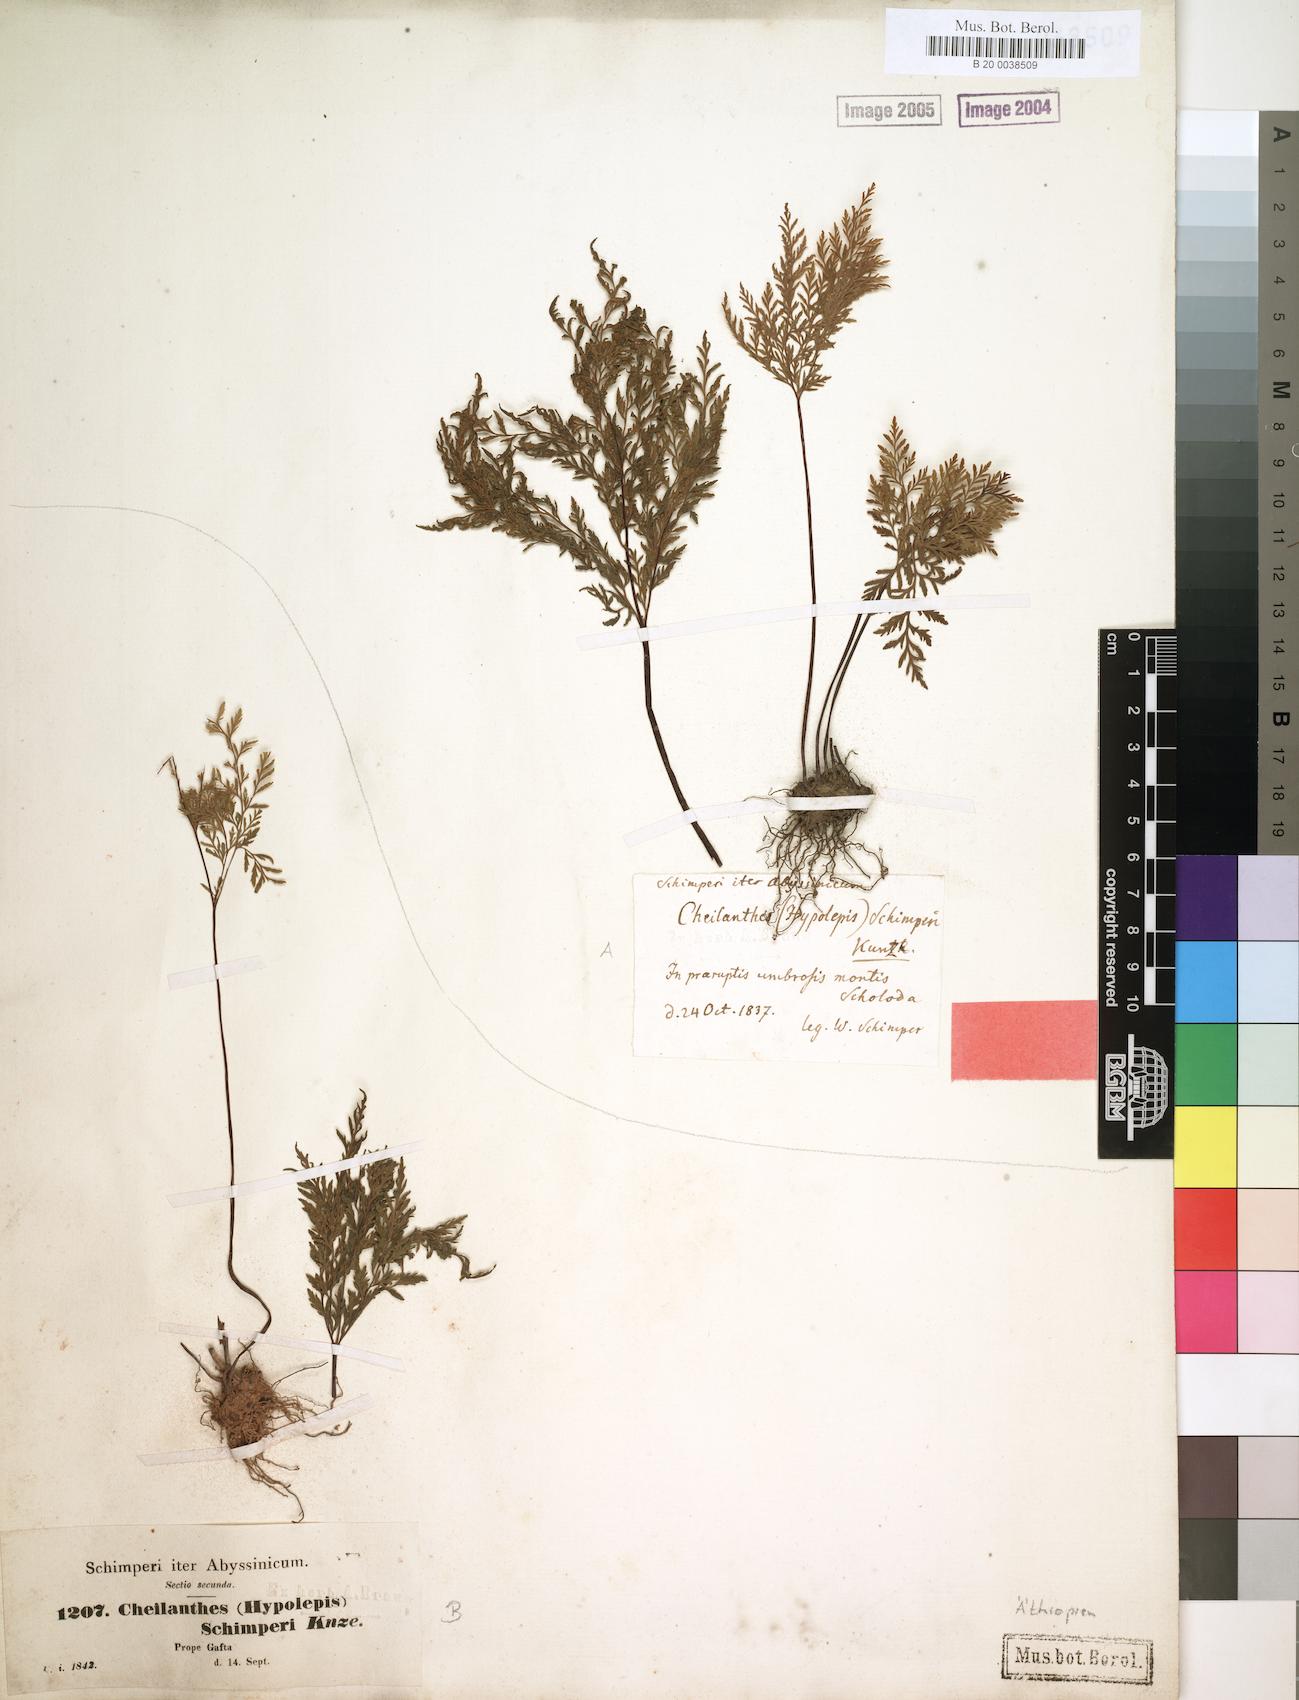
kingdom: Plantae
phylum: Tracheophyta
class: Polypodiopsida
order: Polypodiales
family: Pteridaceae
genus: Cheilanthes
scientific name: Cheilanthes schimperi
